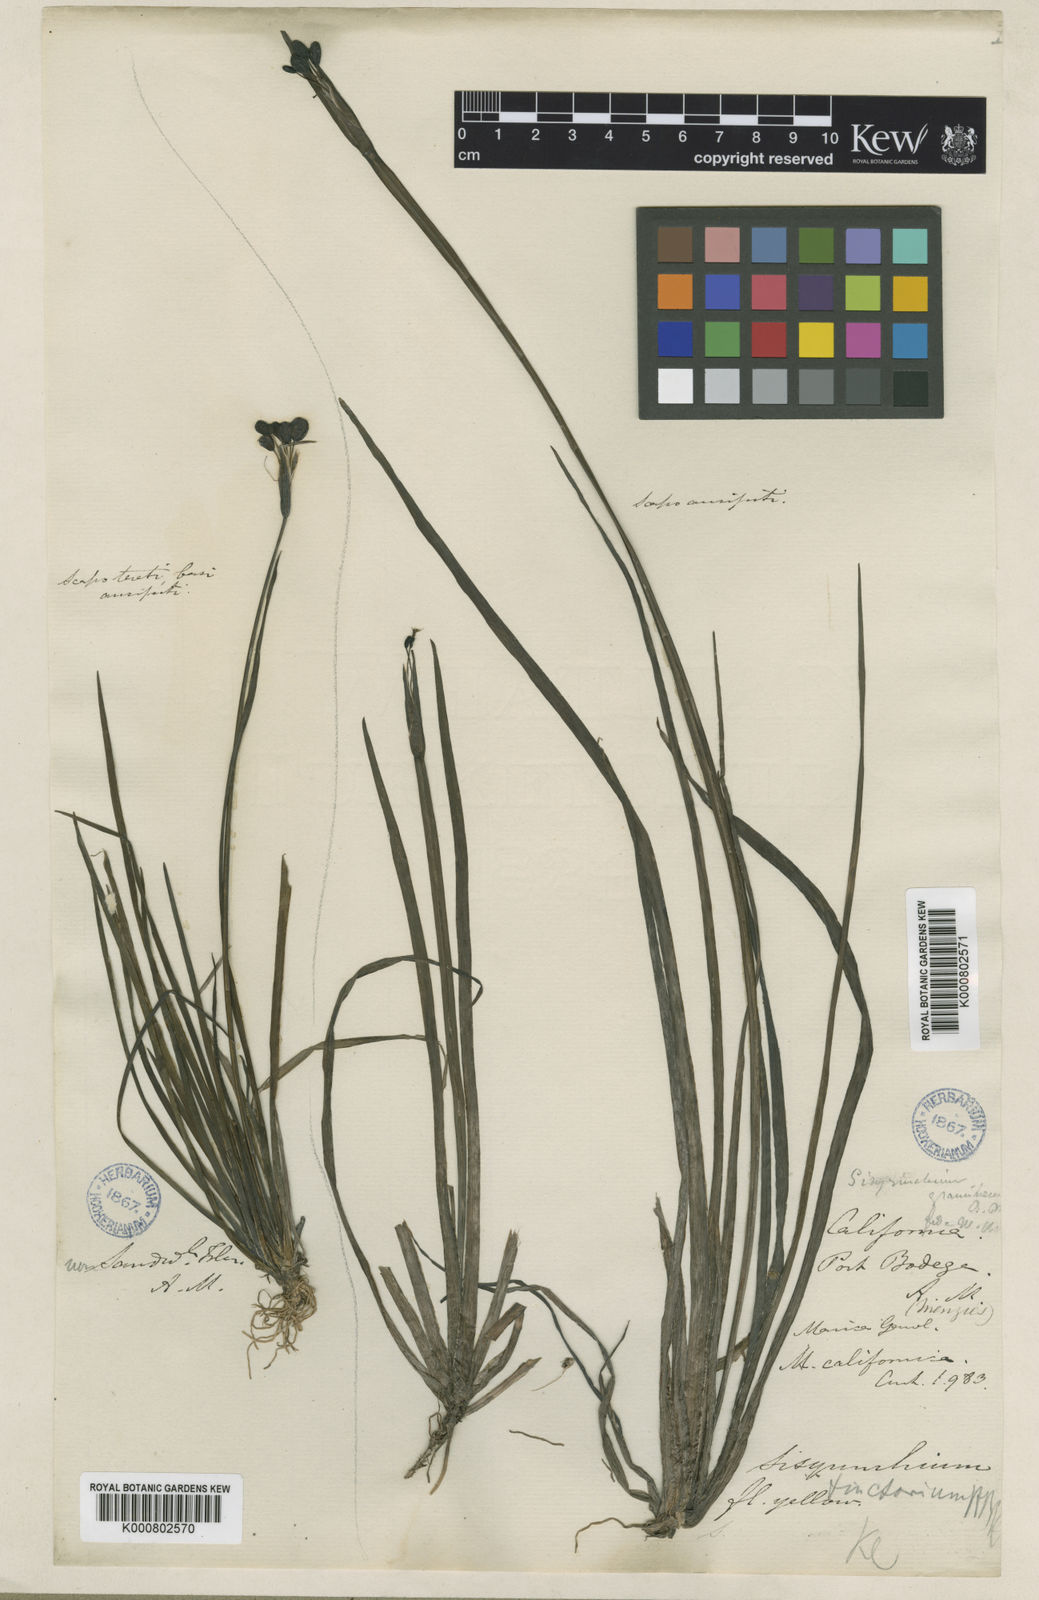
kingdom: Plantae
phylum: Tracheophyta
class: Liliopsida
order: Asparagales
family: Iridaceae
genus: Sisyrinchium
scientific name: Sisyrinchium californicum
